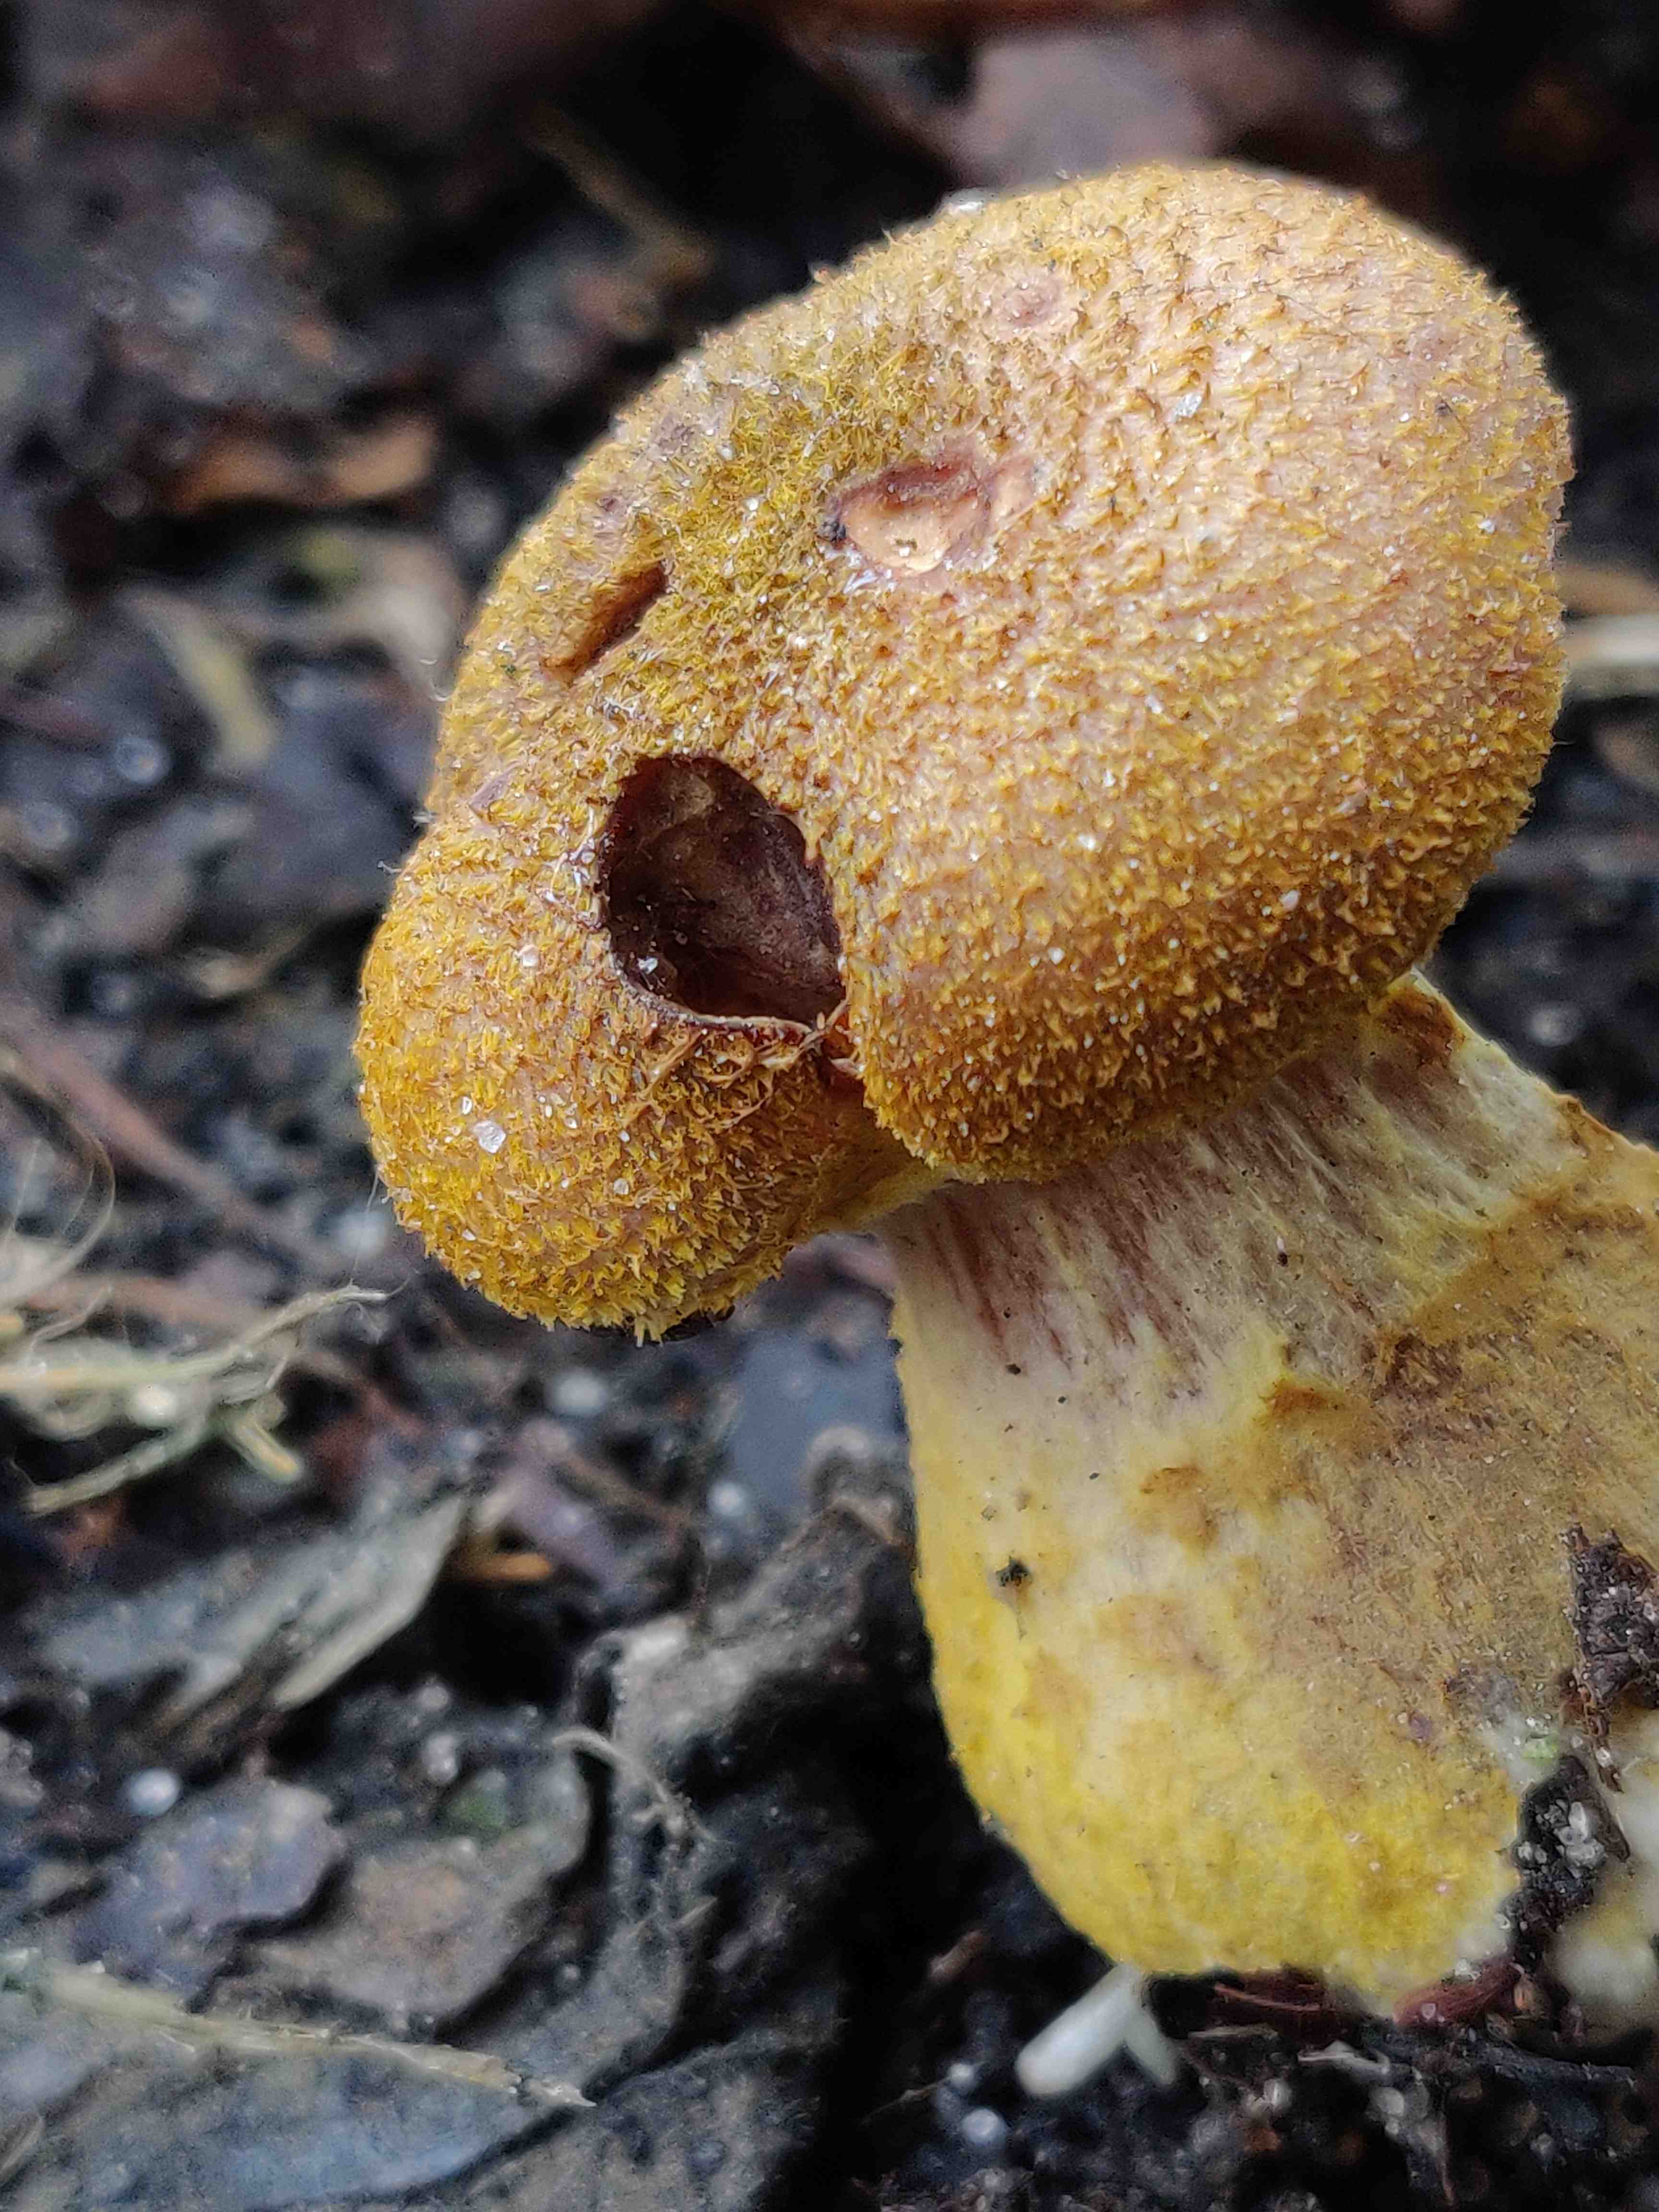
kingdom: Fungi
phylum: Basidiomycota
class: Agaricomycetes
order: Agaricales
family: Physalacriaceae
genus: Armillaria
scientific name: Armillaria lutea
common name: køllestokket honningsvamp
